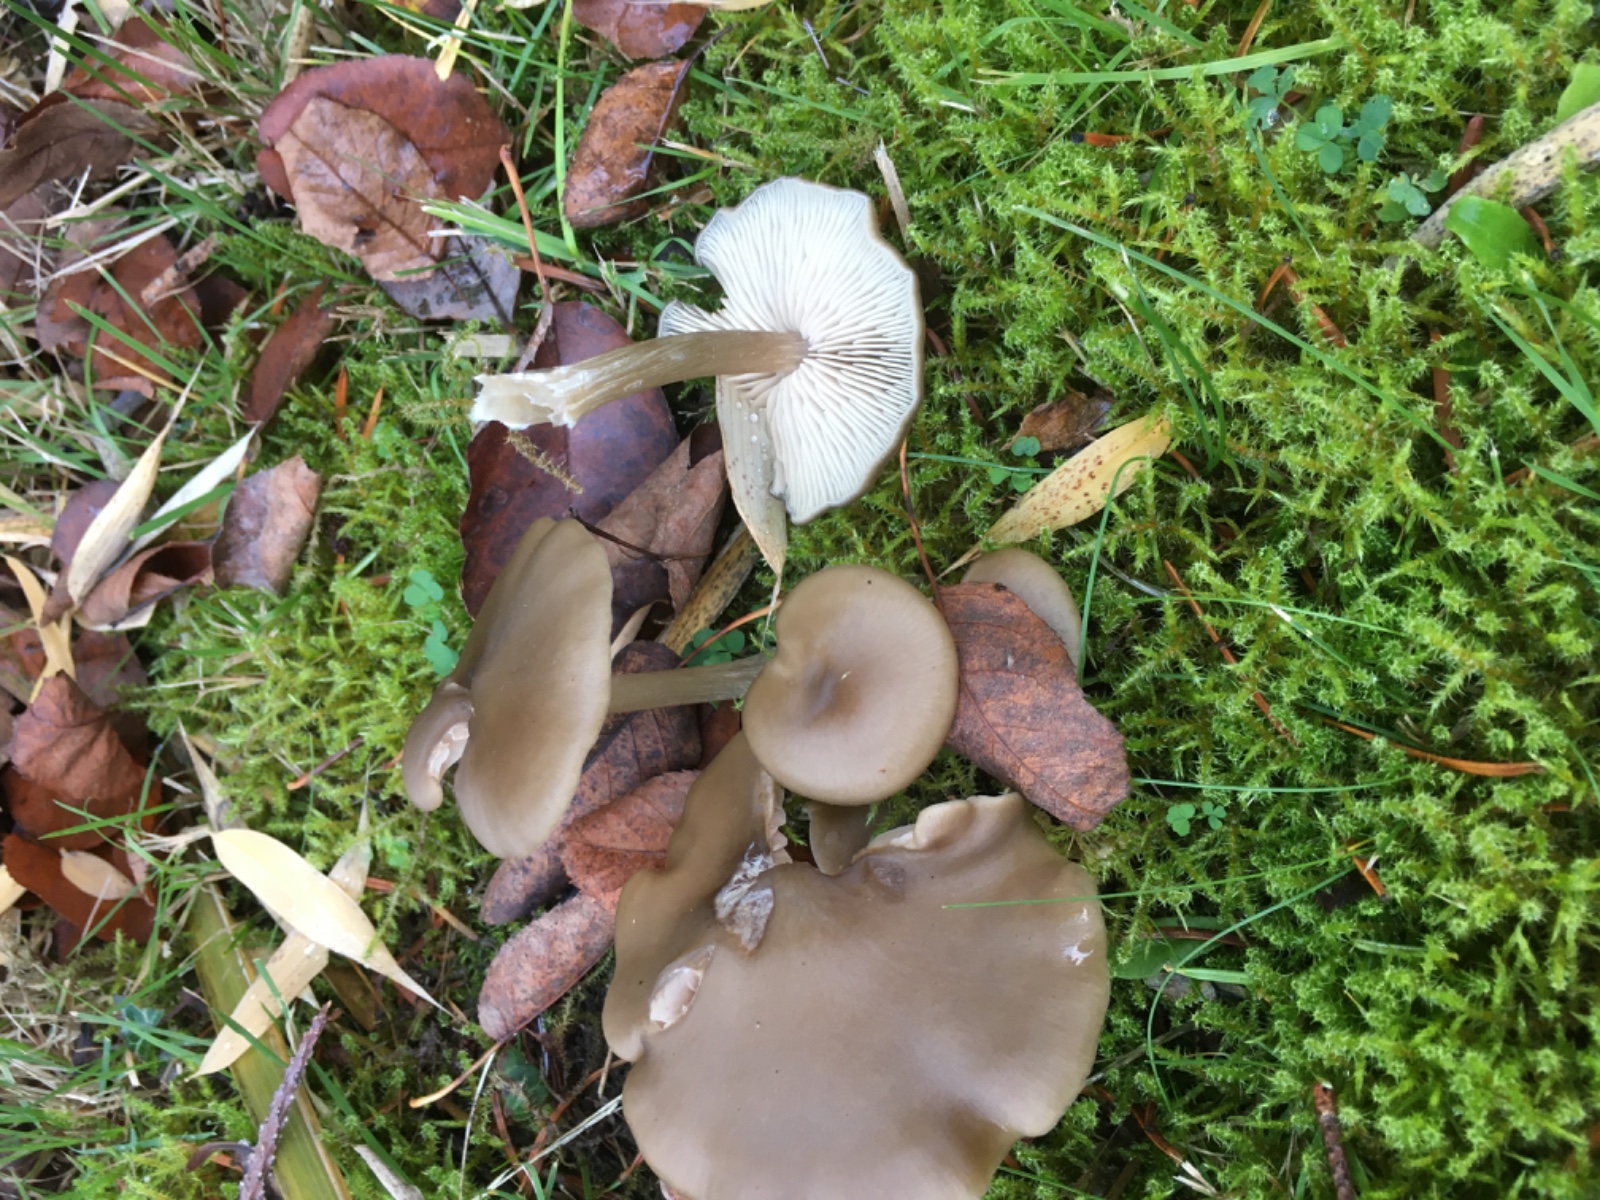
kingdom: Fungi
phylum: Basidiomycota
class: Agaricomycetes
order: Agaricales
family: Entolomataceae
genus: Entoloma
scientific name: Entoloma
